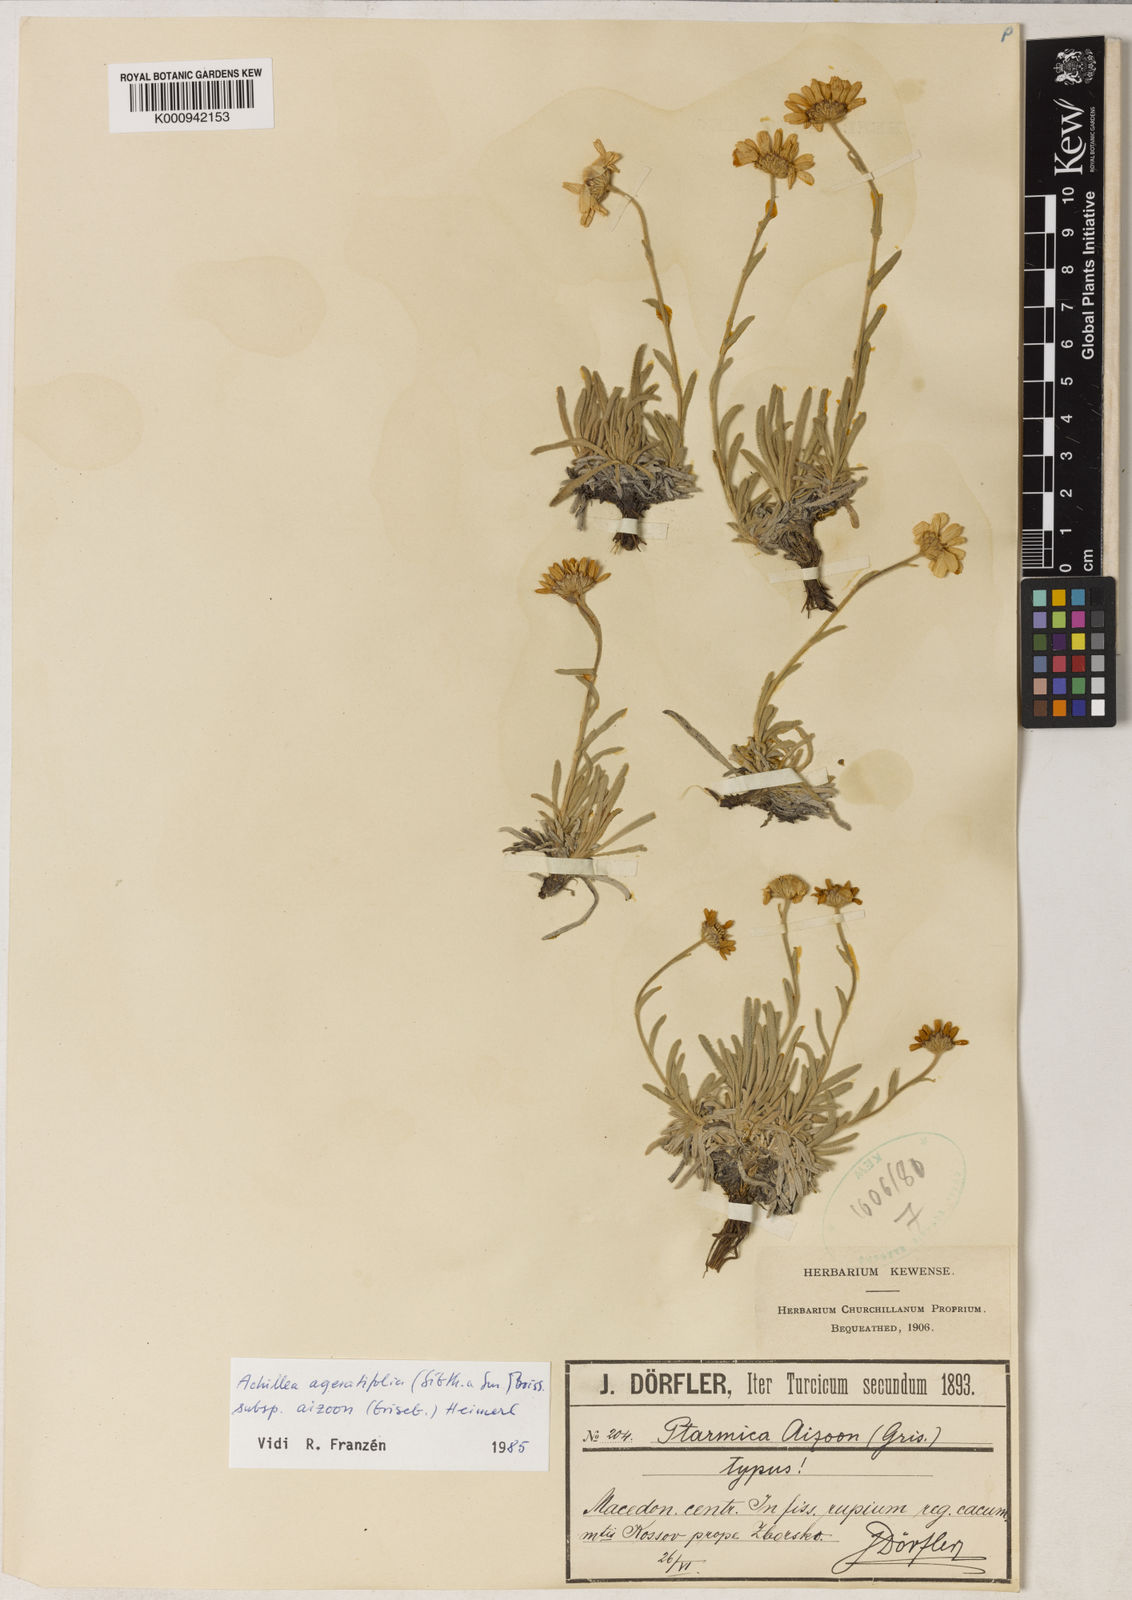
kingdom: Plantae
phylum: Tracheophyta
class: Magnoliopsida
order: Asterales
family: Asteraceae
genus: Achillea
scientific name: Achillea
